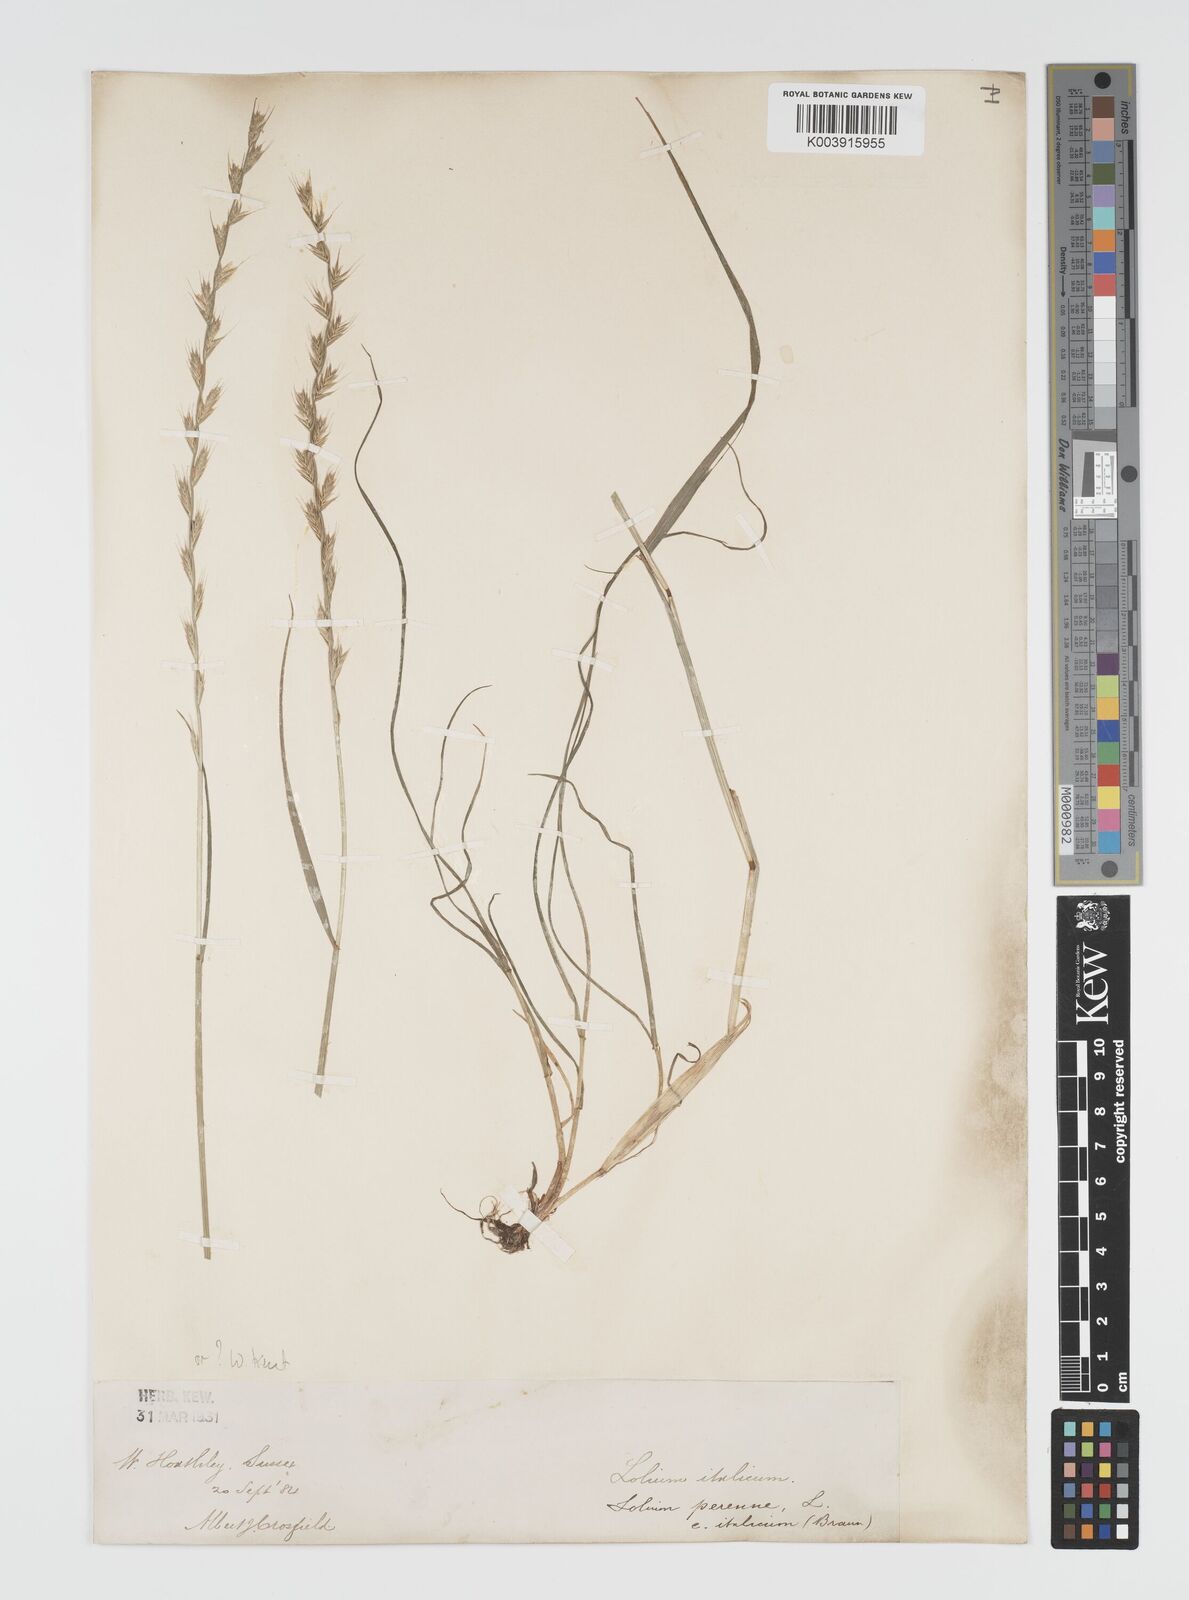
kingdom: Plantae
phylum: Tracheophyta
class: Liliopsida
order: Poales
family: Poaceae
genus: Lolium
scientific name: Lolium multiflorum
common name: Annual ryegrass
